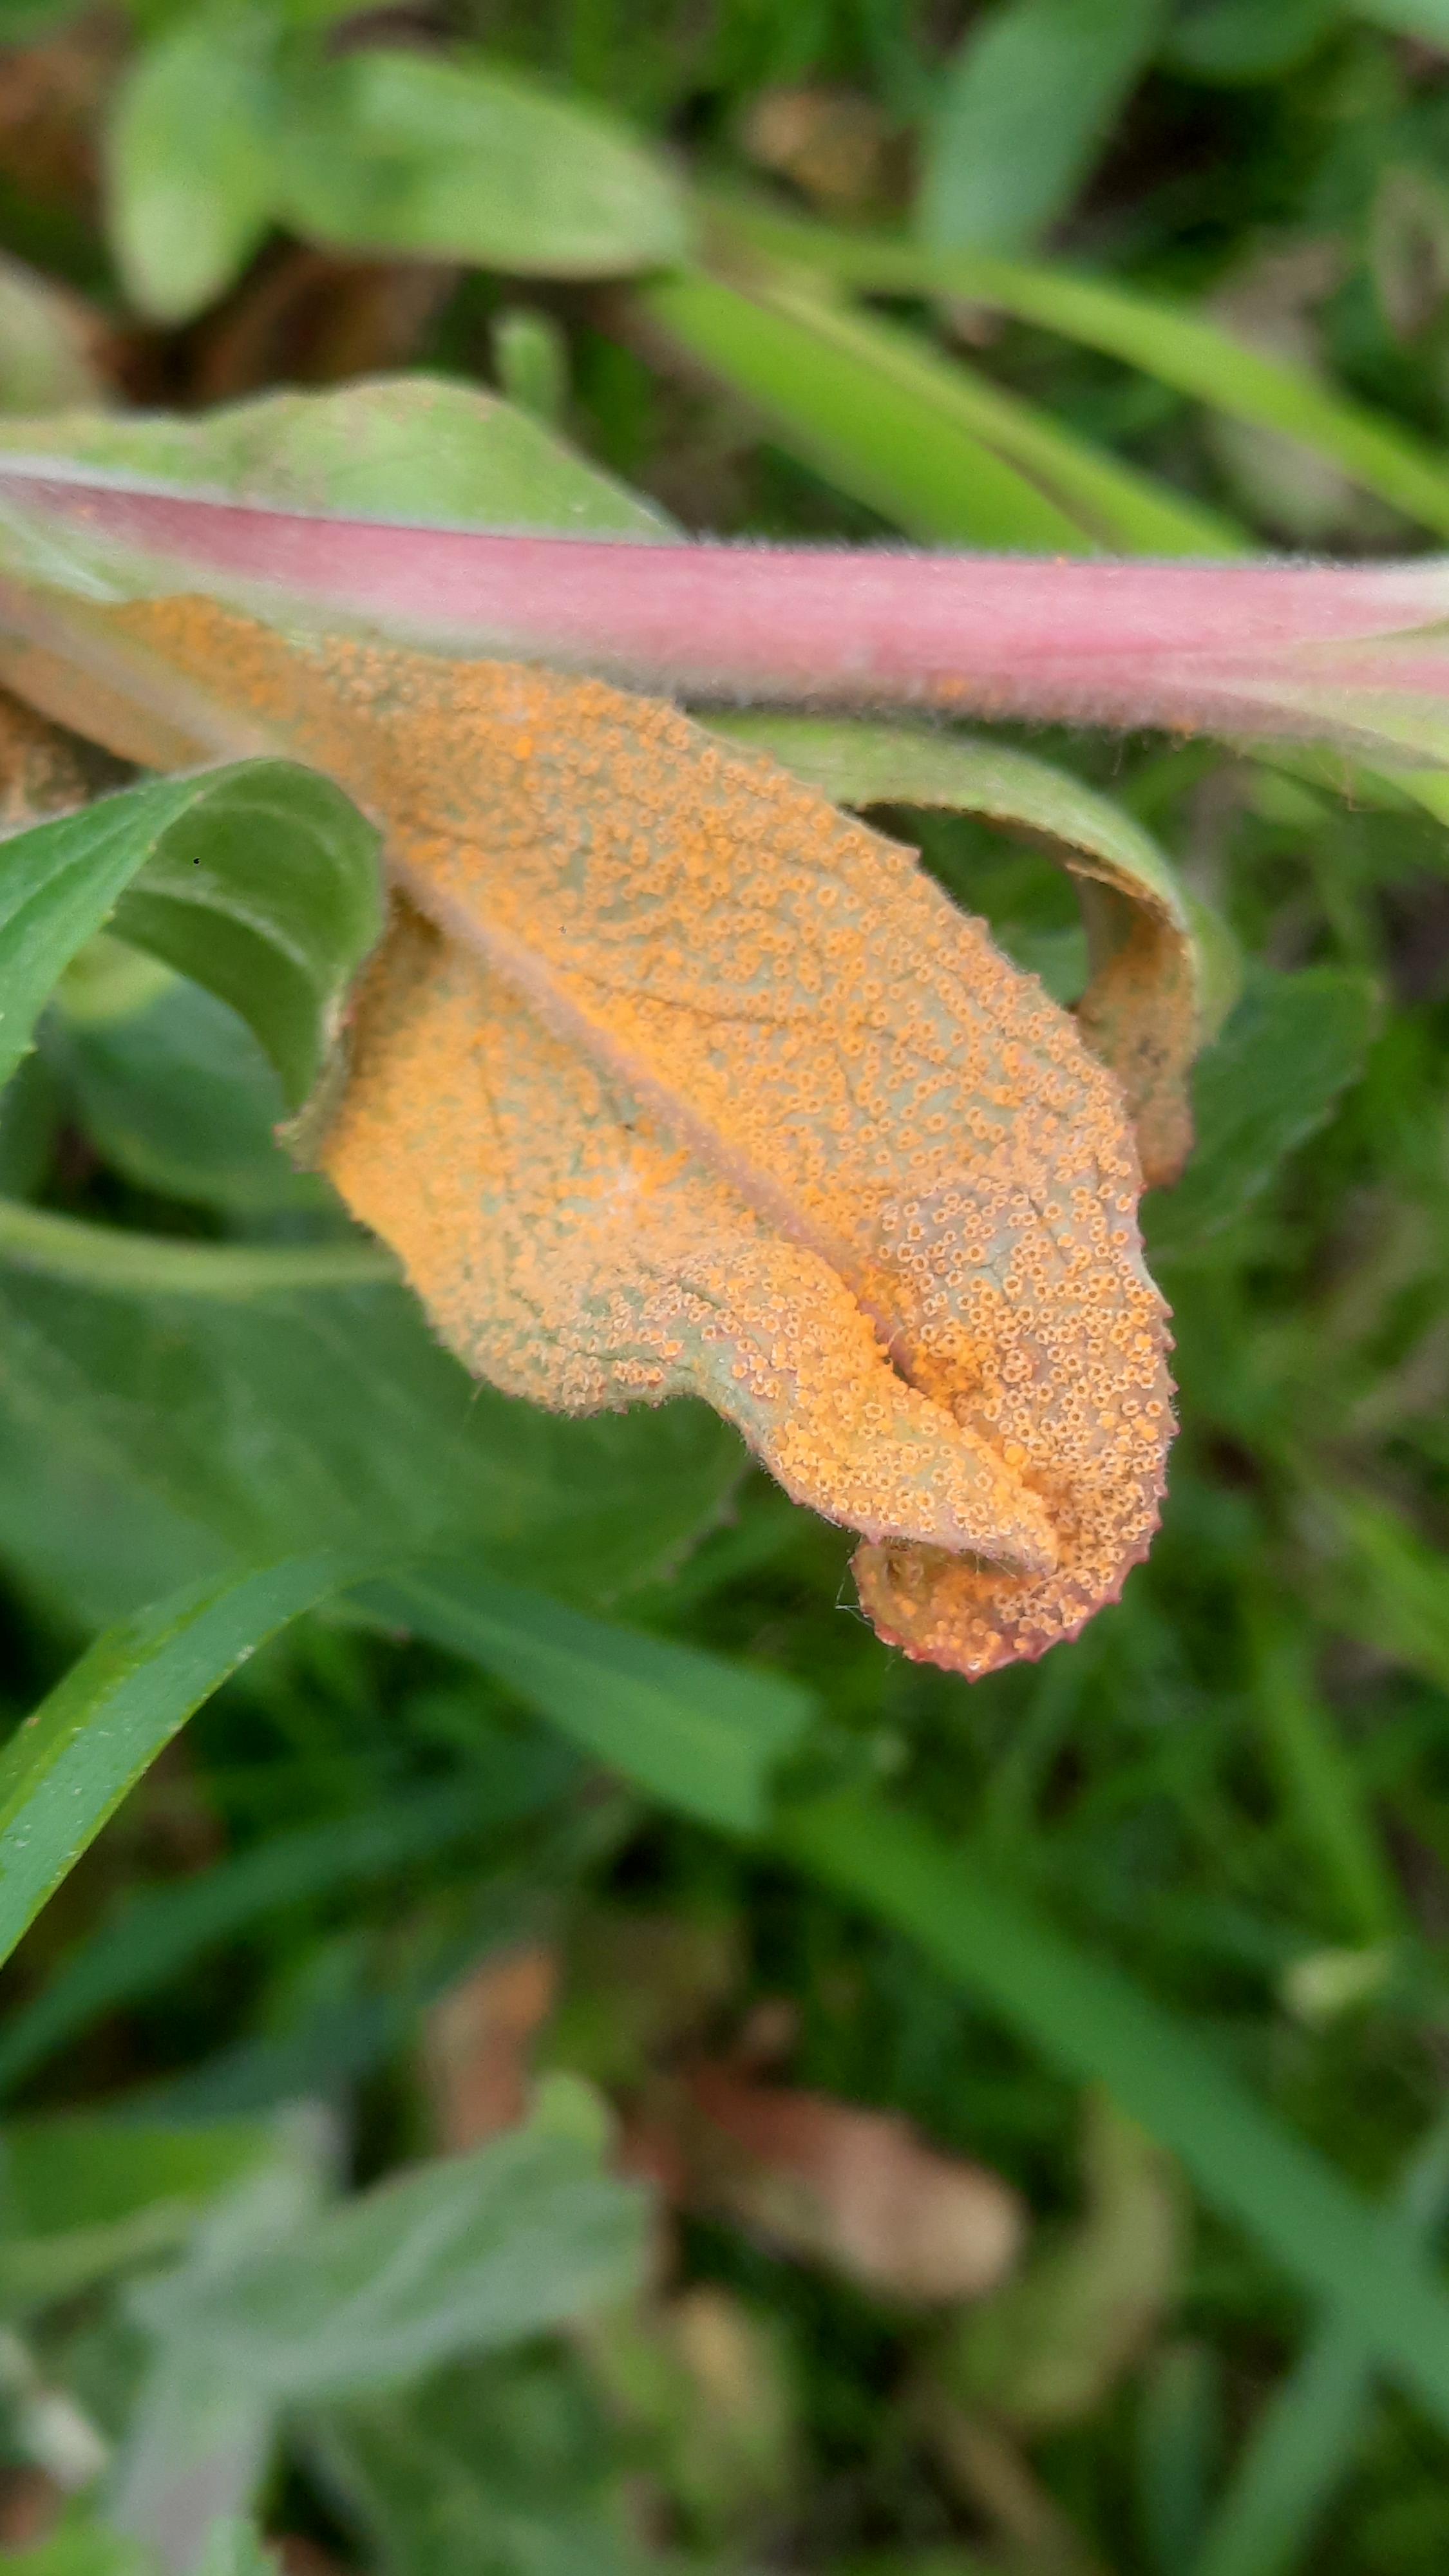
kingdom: Fungi
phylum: Basidiomycota
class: Pucciniomycetes
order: Pucciniales
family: Pucciniaceae
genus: Puccinia
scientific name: Puccinia pulverulenta
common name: dueurt-tvecellerust
